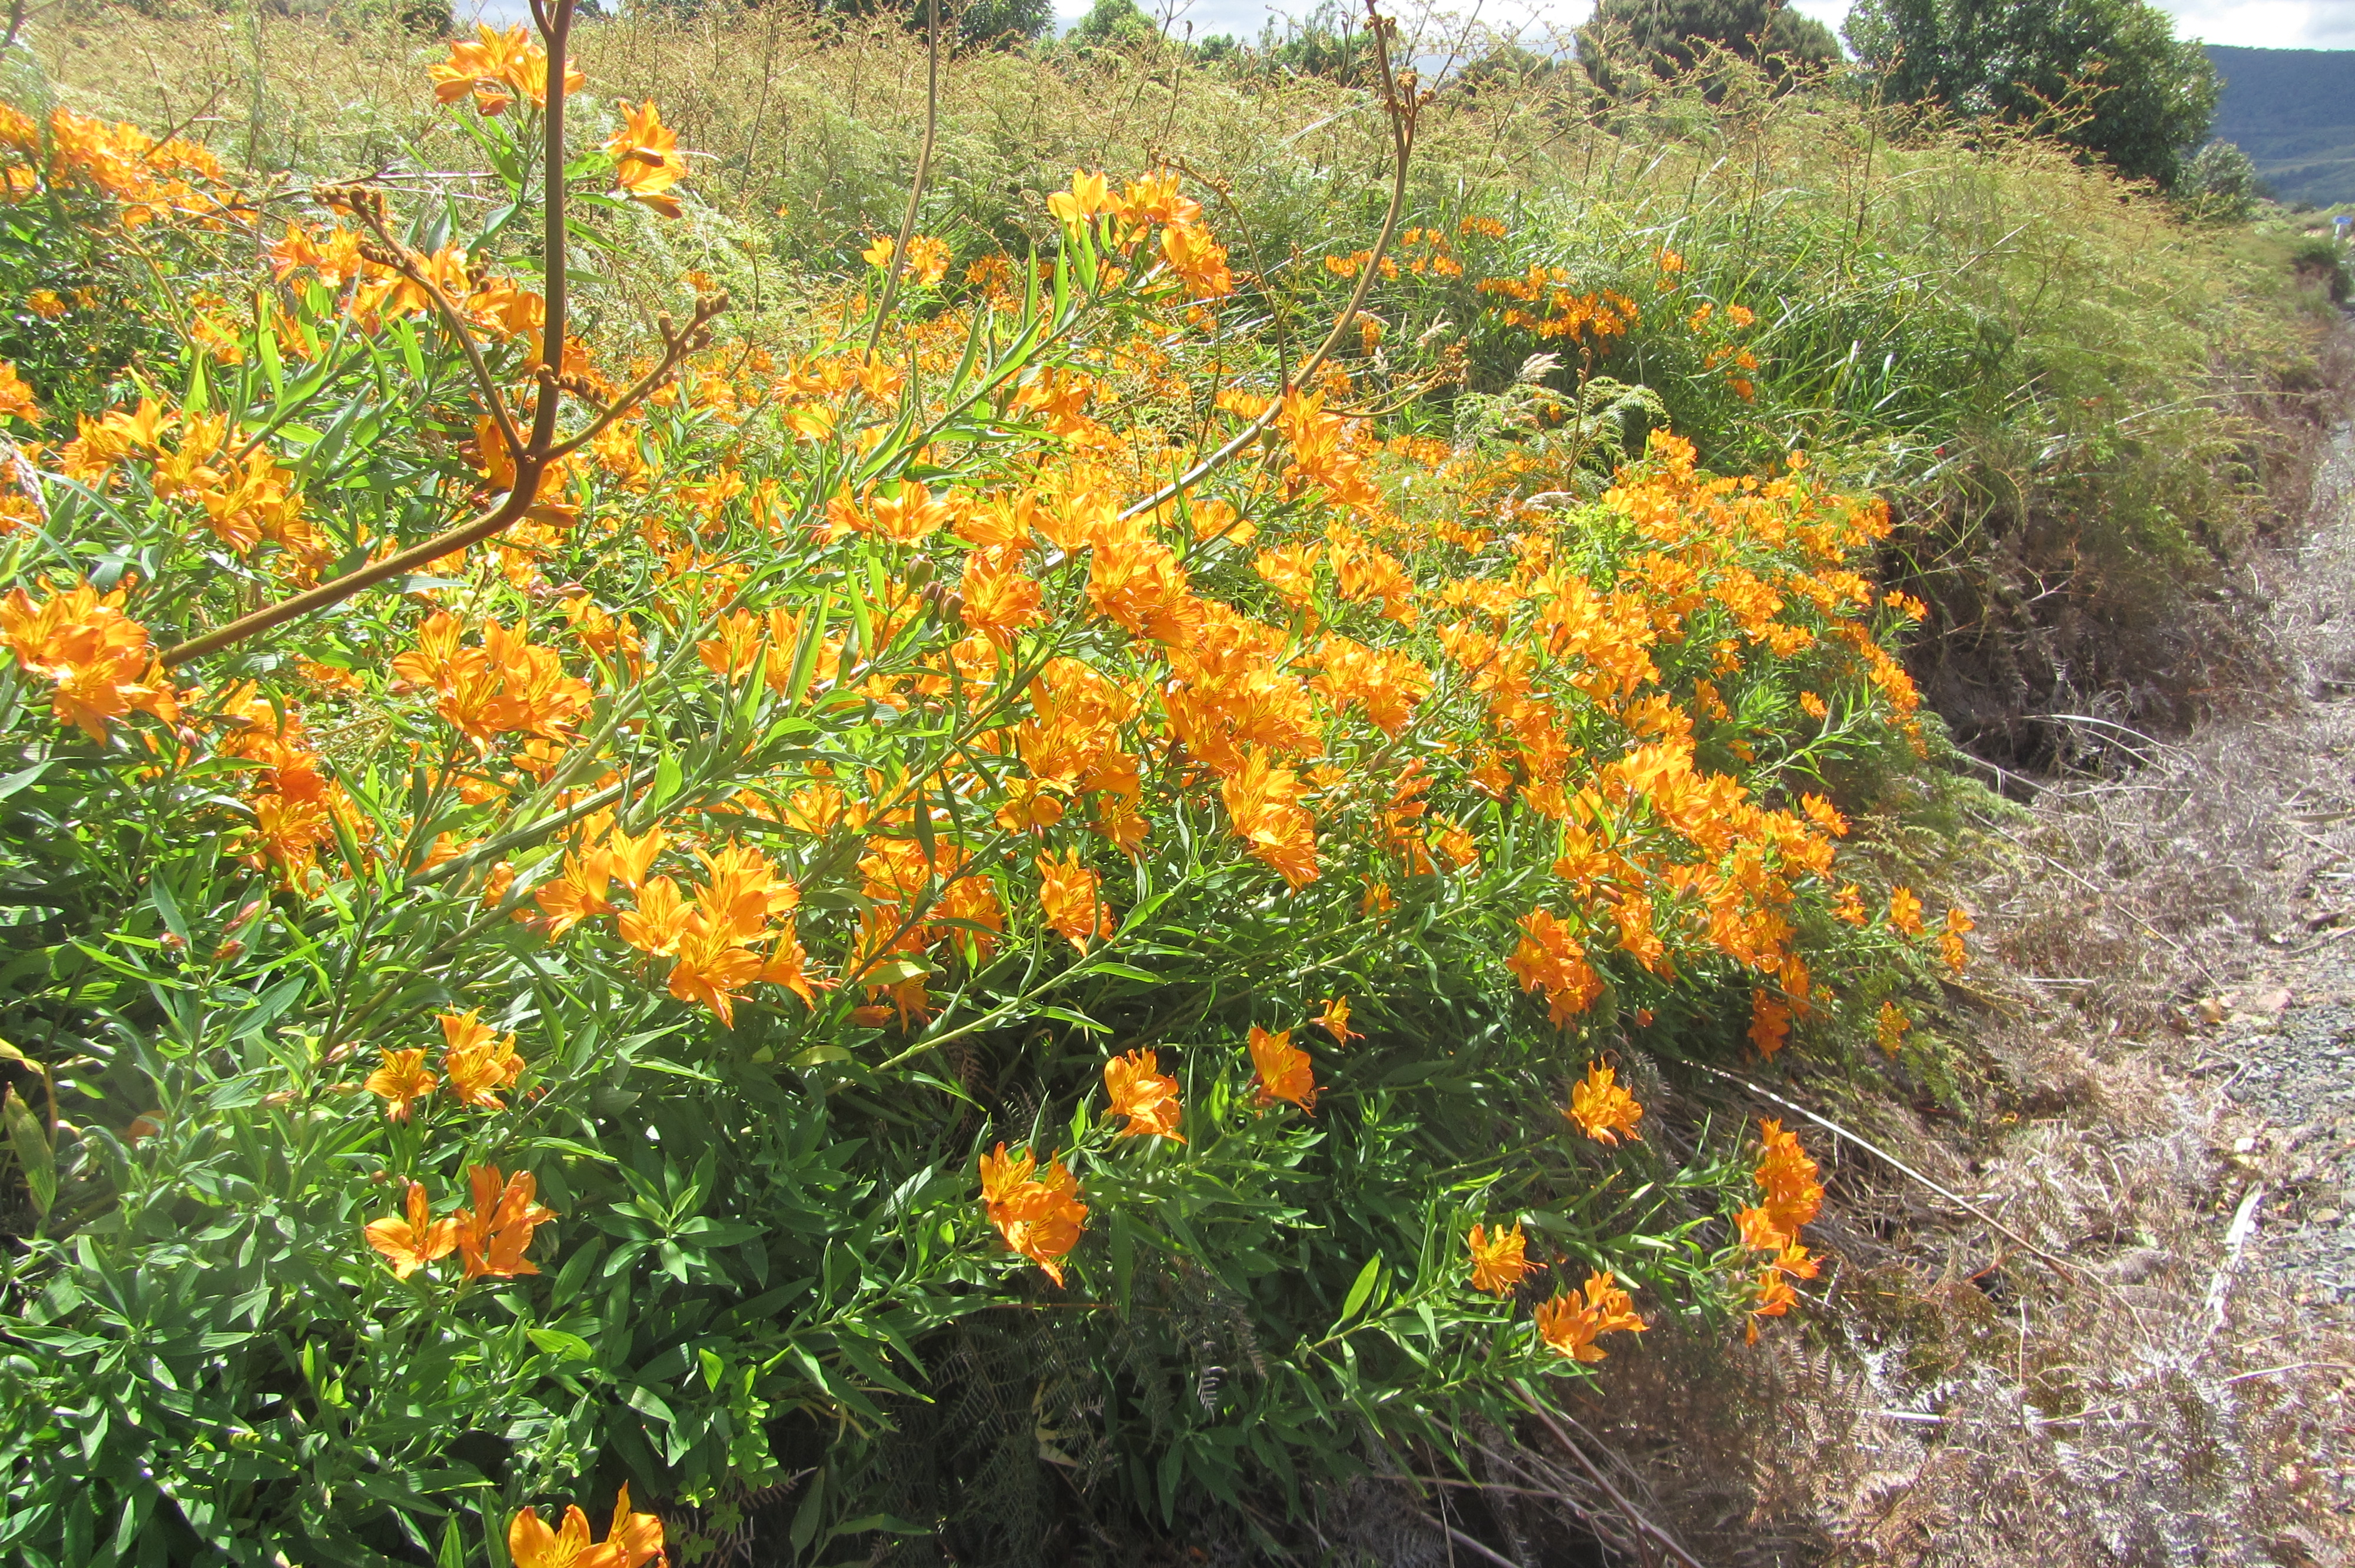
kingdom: Plantae
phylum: Tracheophyta
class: Liliopsida
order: Liliales
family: Alstroemeriaceae
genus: Alstroemeria
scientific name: Alstroemeria aurea
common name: Peruvian lily
